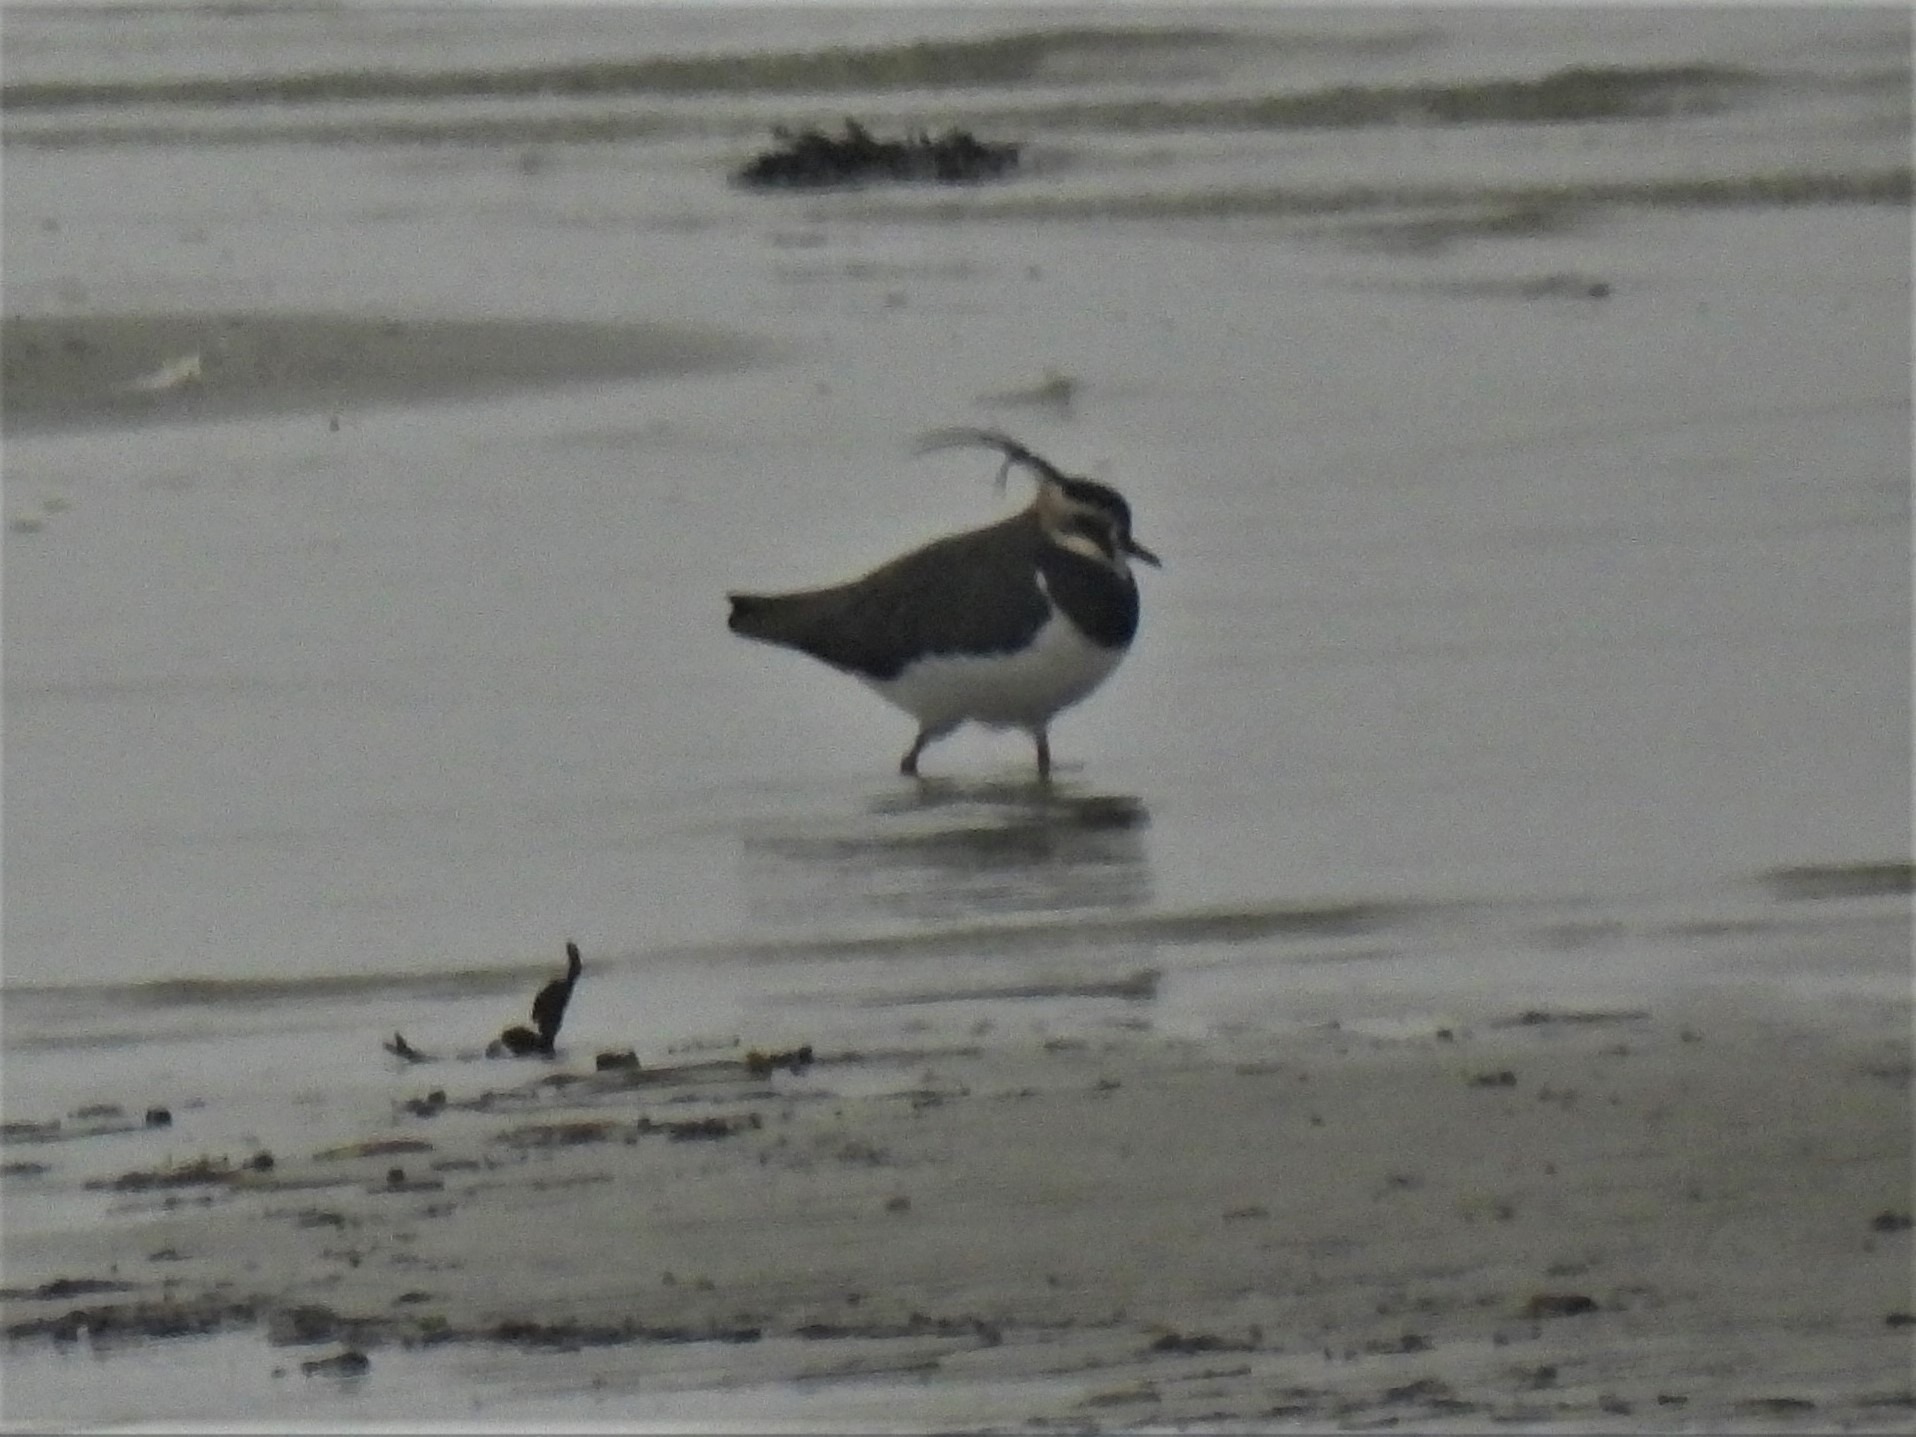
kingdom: Animalia
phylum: Chordata
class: Aves
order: Charadriiformes
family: Charadriidae
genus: Vanellus
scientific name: Vanellus vanellus
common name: Vibe
